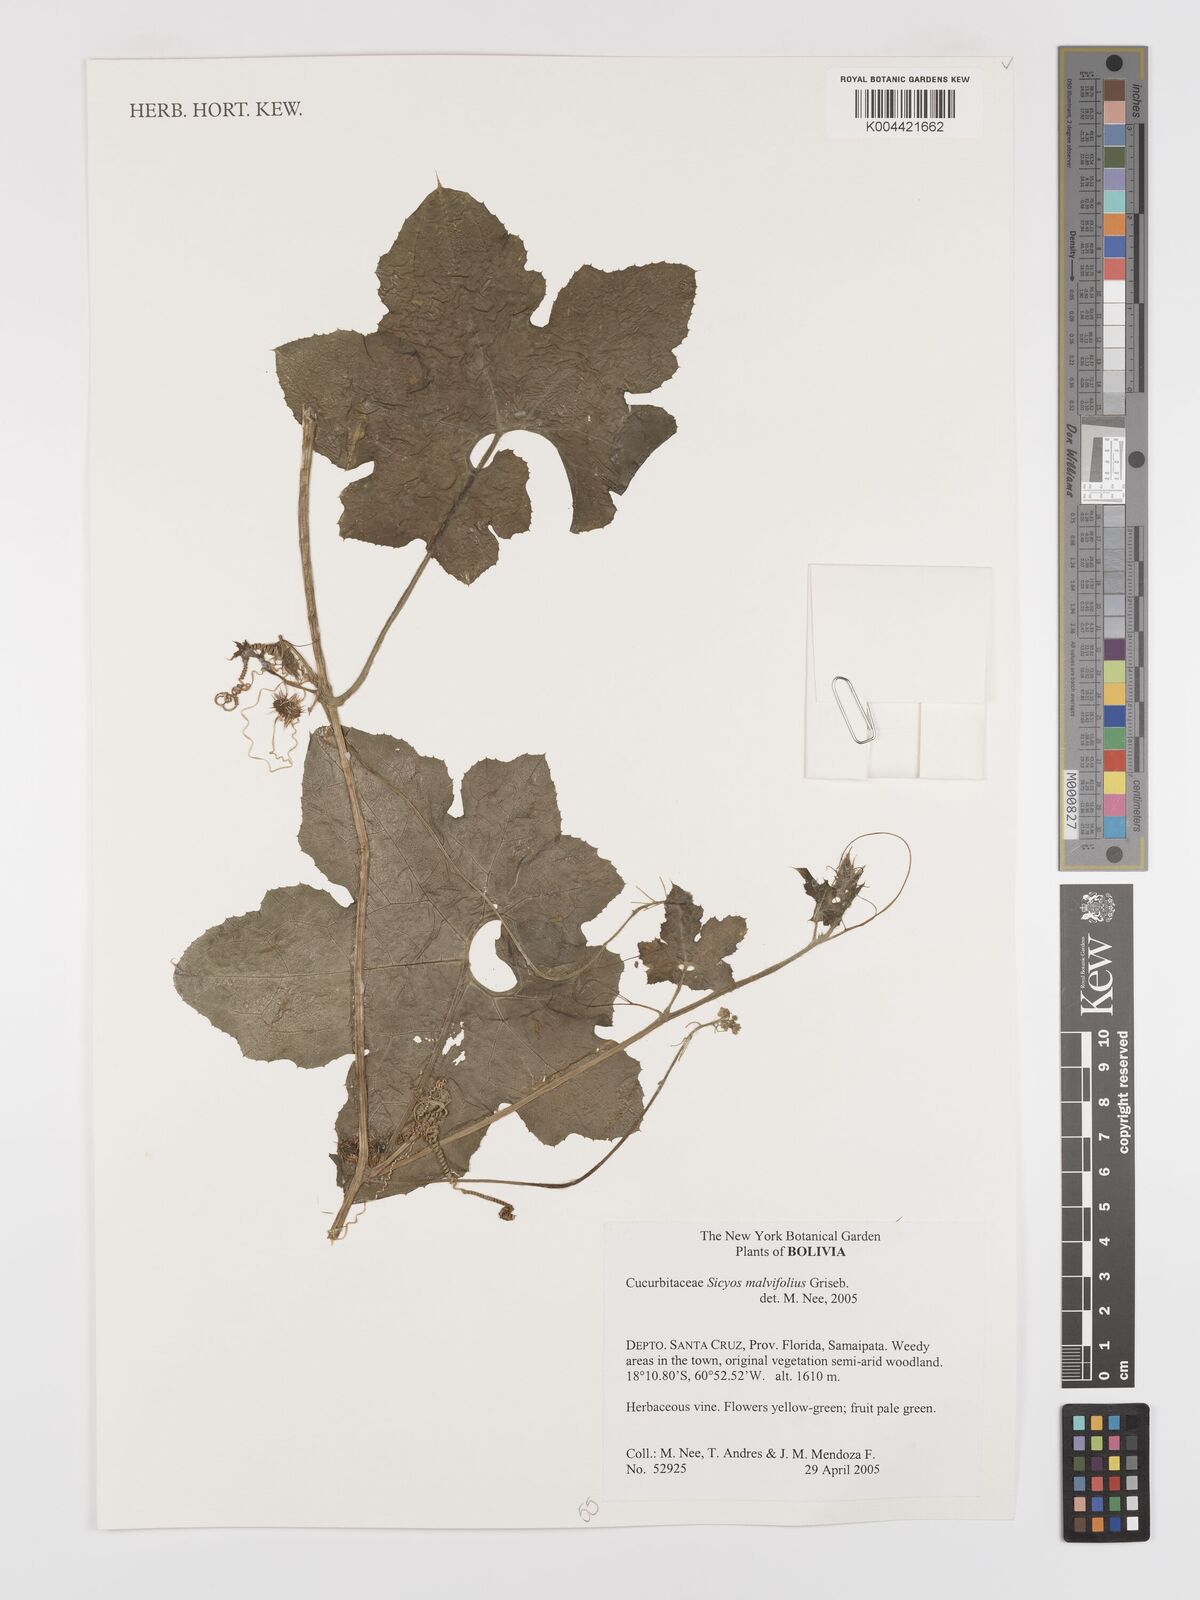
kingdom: Plantae
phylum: Tracheophyta
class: Magnoliopsida
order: Cucurbitales
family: Cucurbitaceae
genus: Sicyos
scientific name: Sicyos malvifolius
